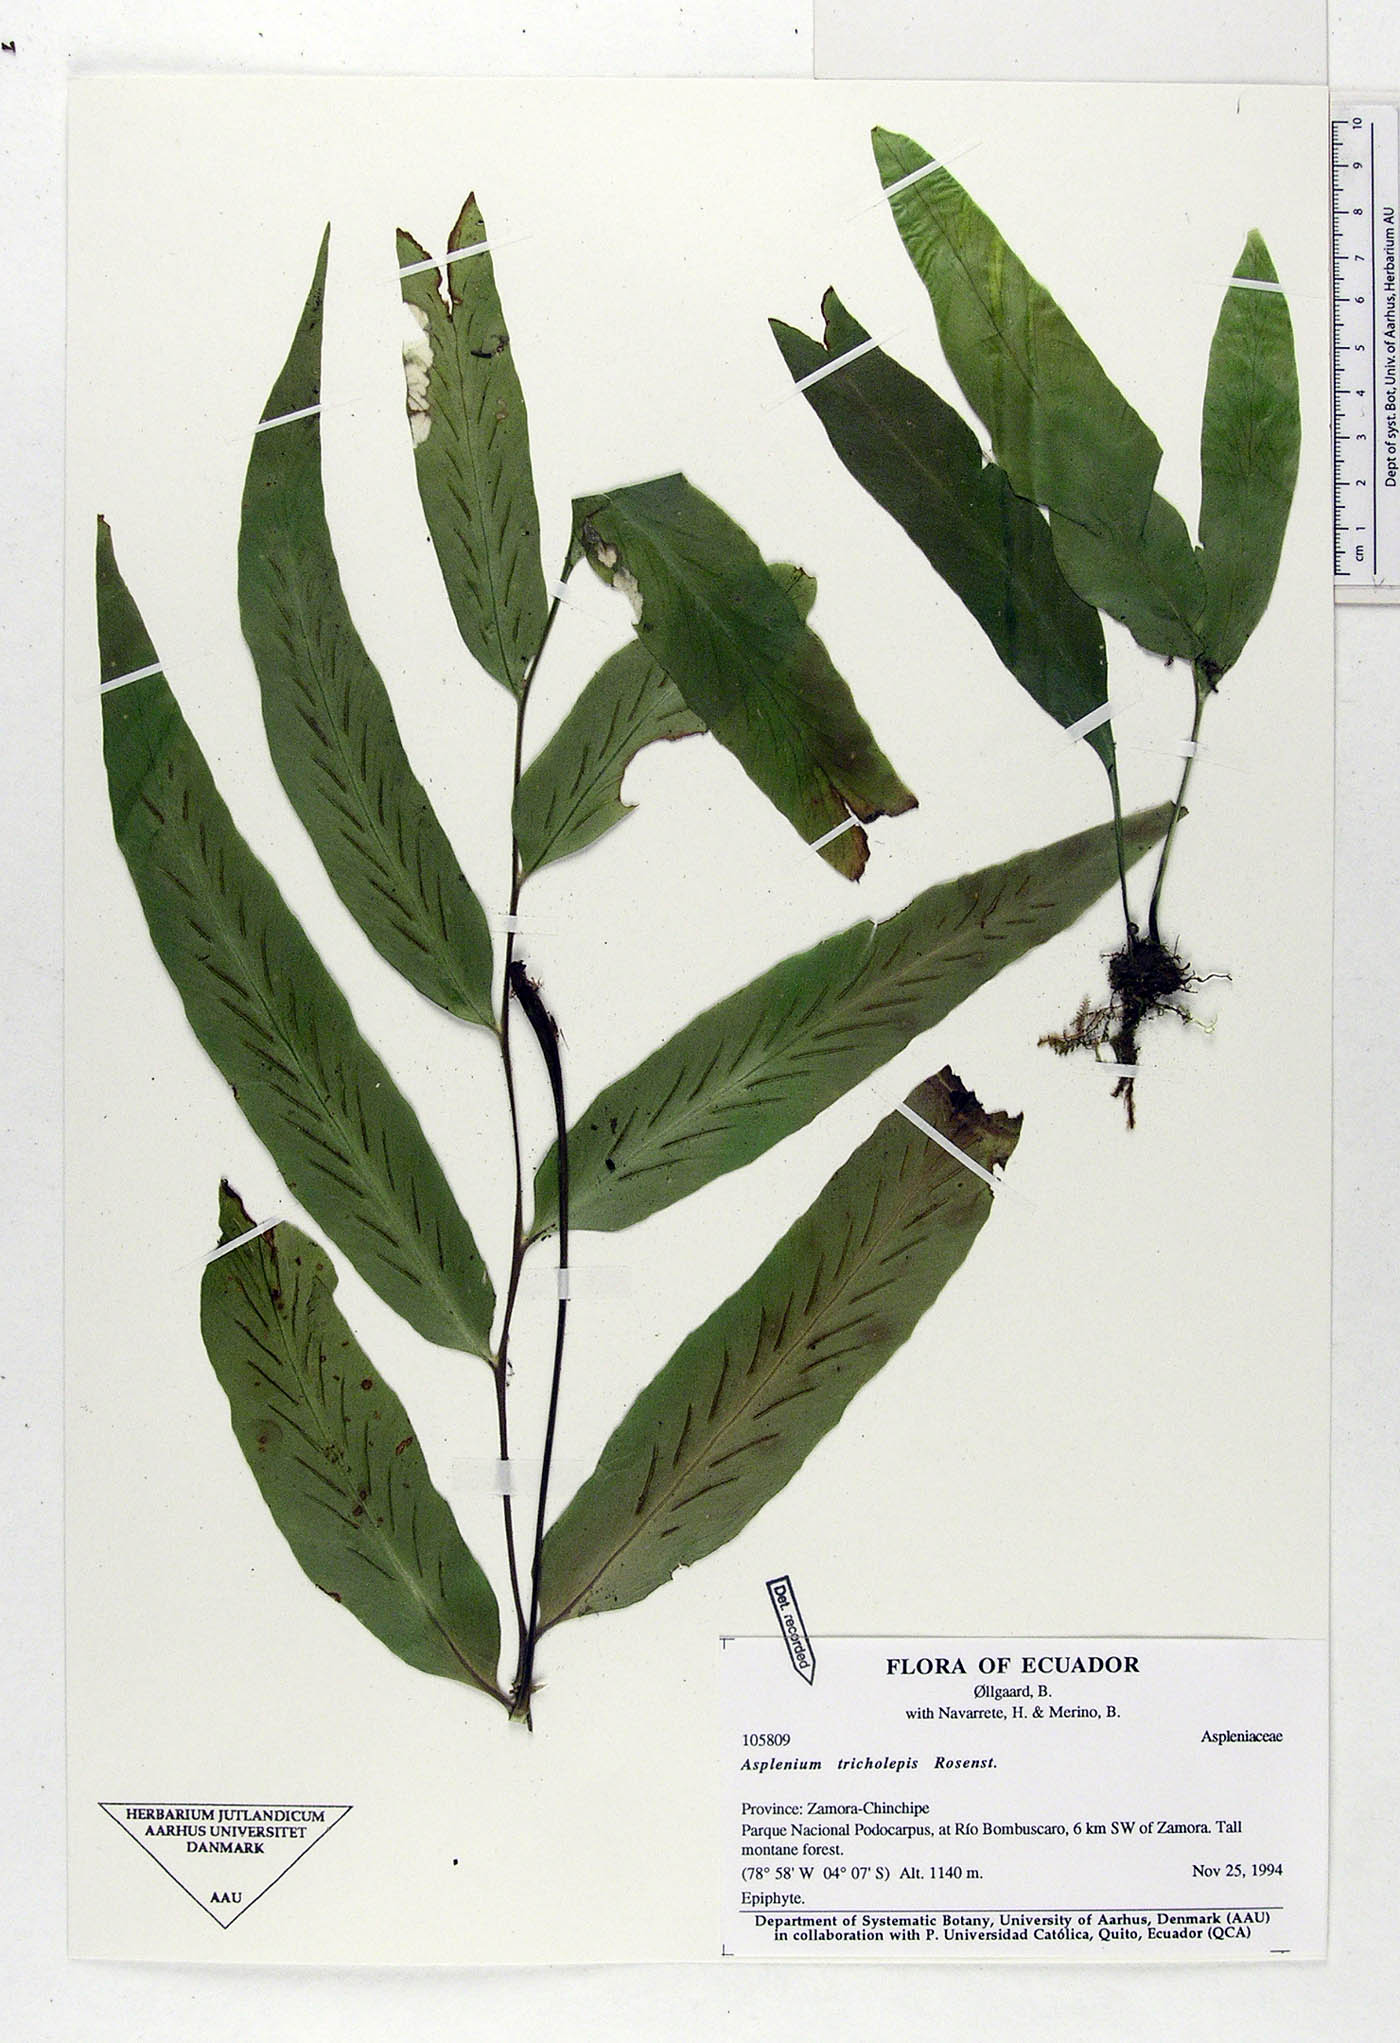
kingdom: Plantae
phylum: Tracheophyta
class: Polypodiopsida
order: Polypodiales
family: Aspleniaceae
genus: Asplenium
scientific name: Asplenium tricholepis
